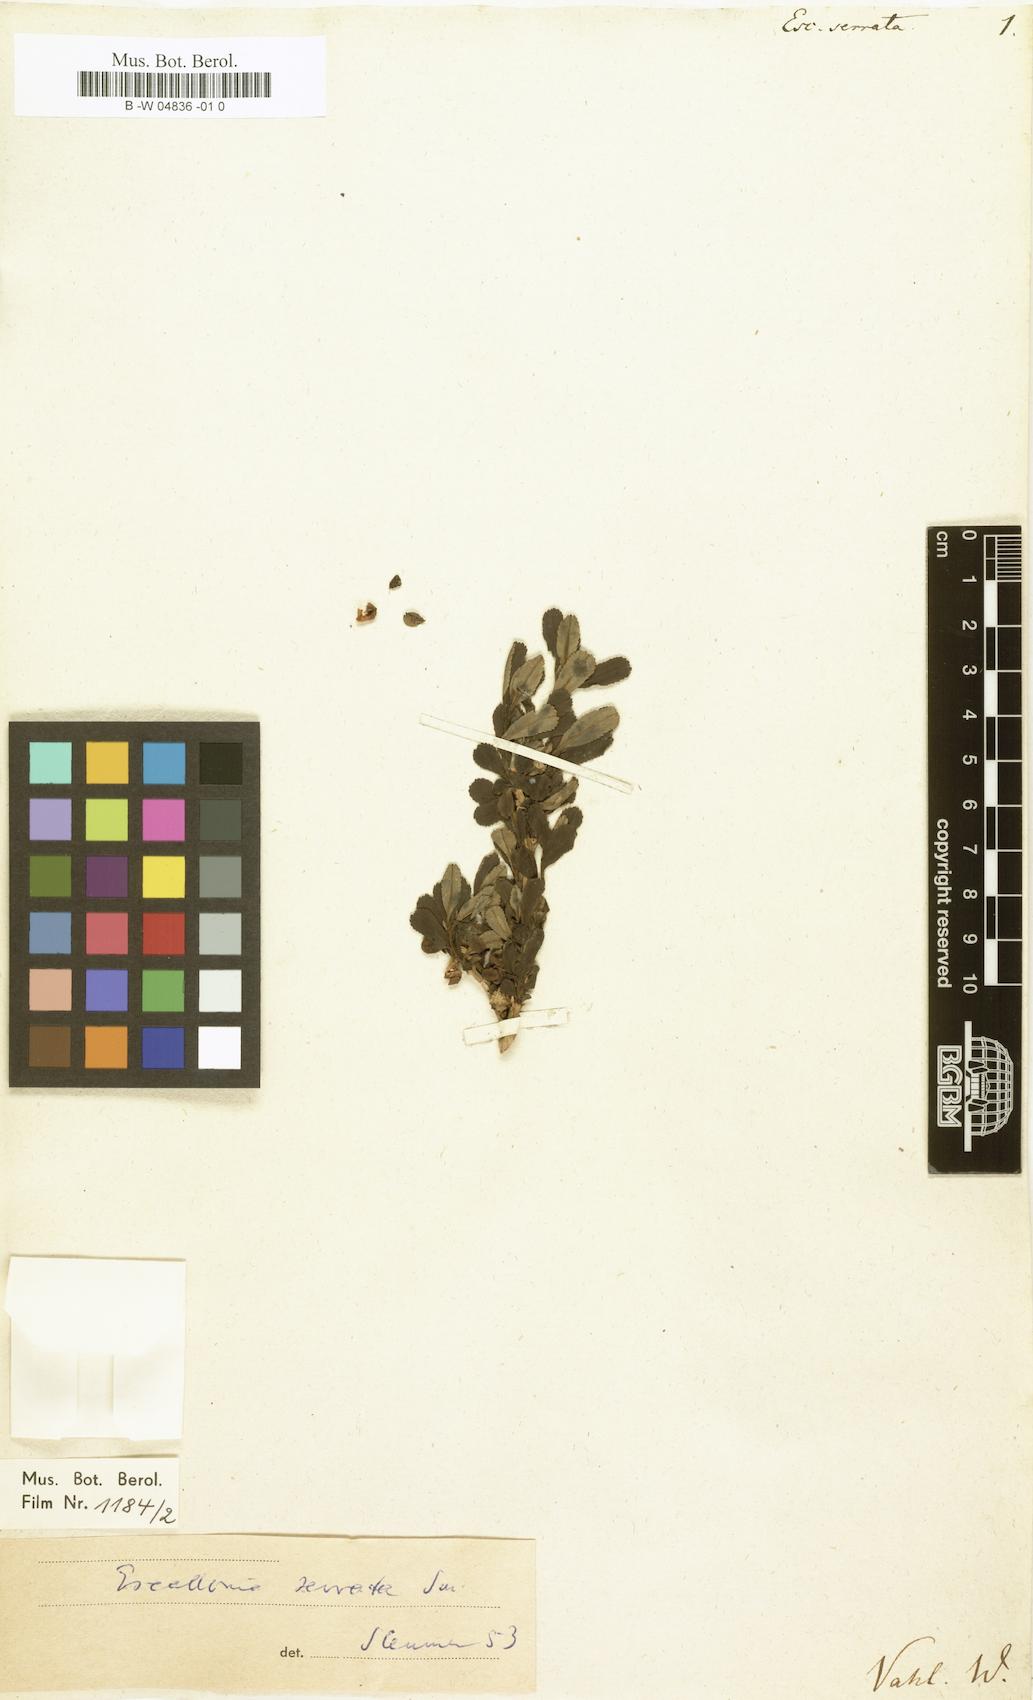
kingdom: Plantae
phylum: Tracheophyta
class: Magnoliopsida
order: Escalloniales
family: Escalloniaceae
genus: Escallonia
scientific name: Escallonia serrata
